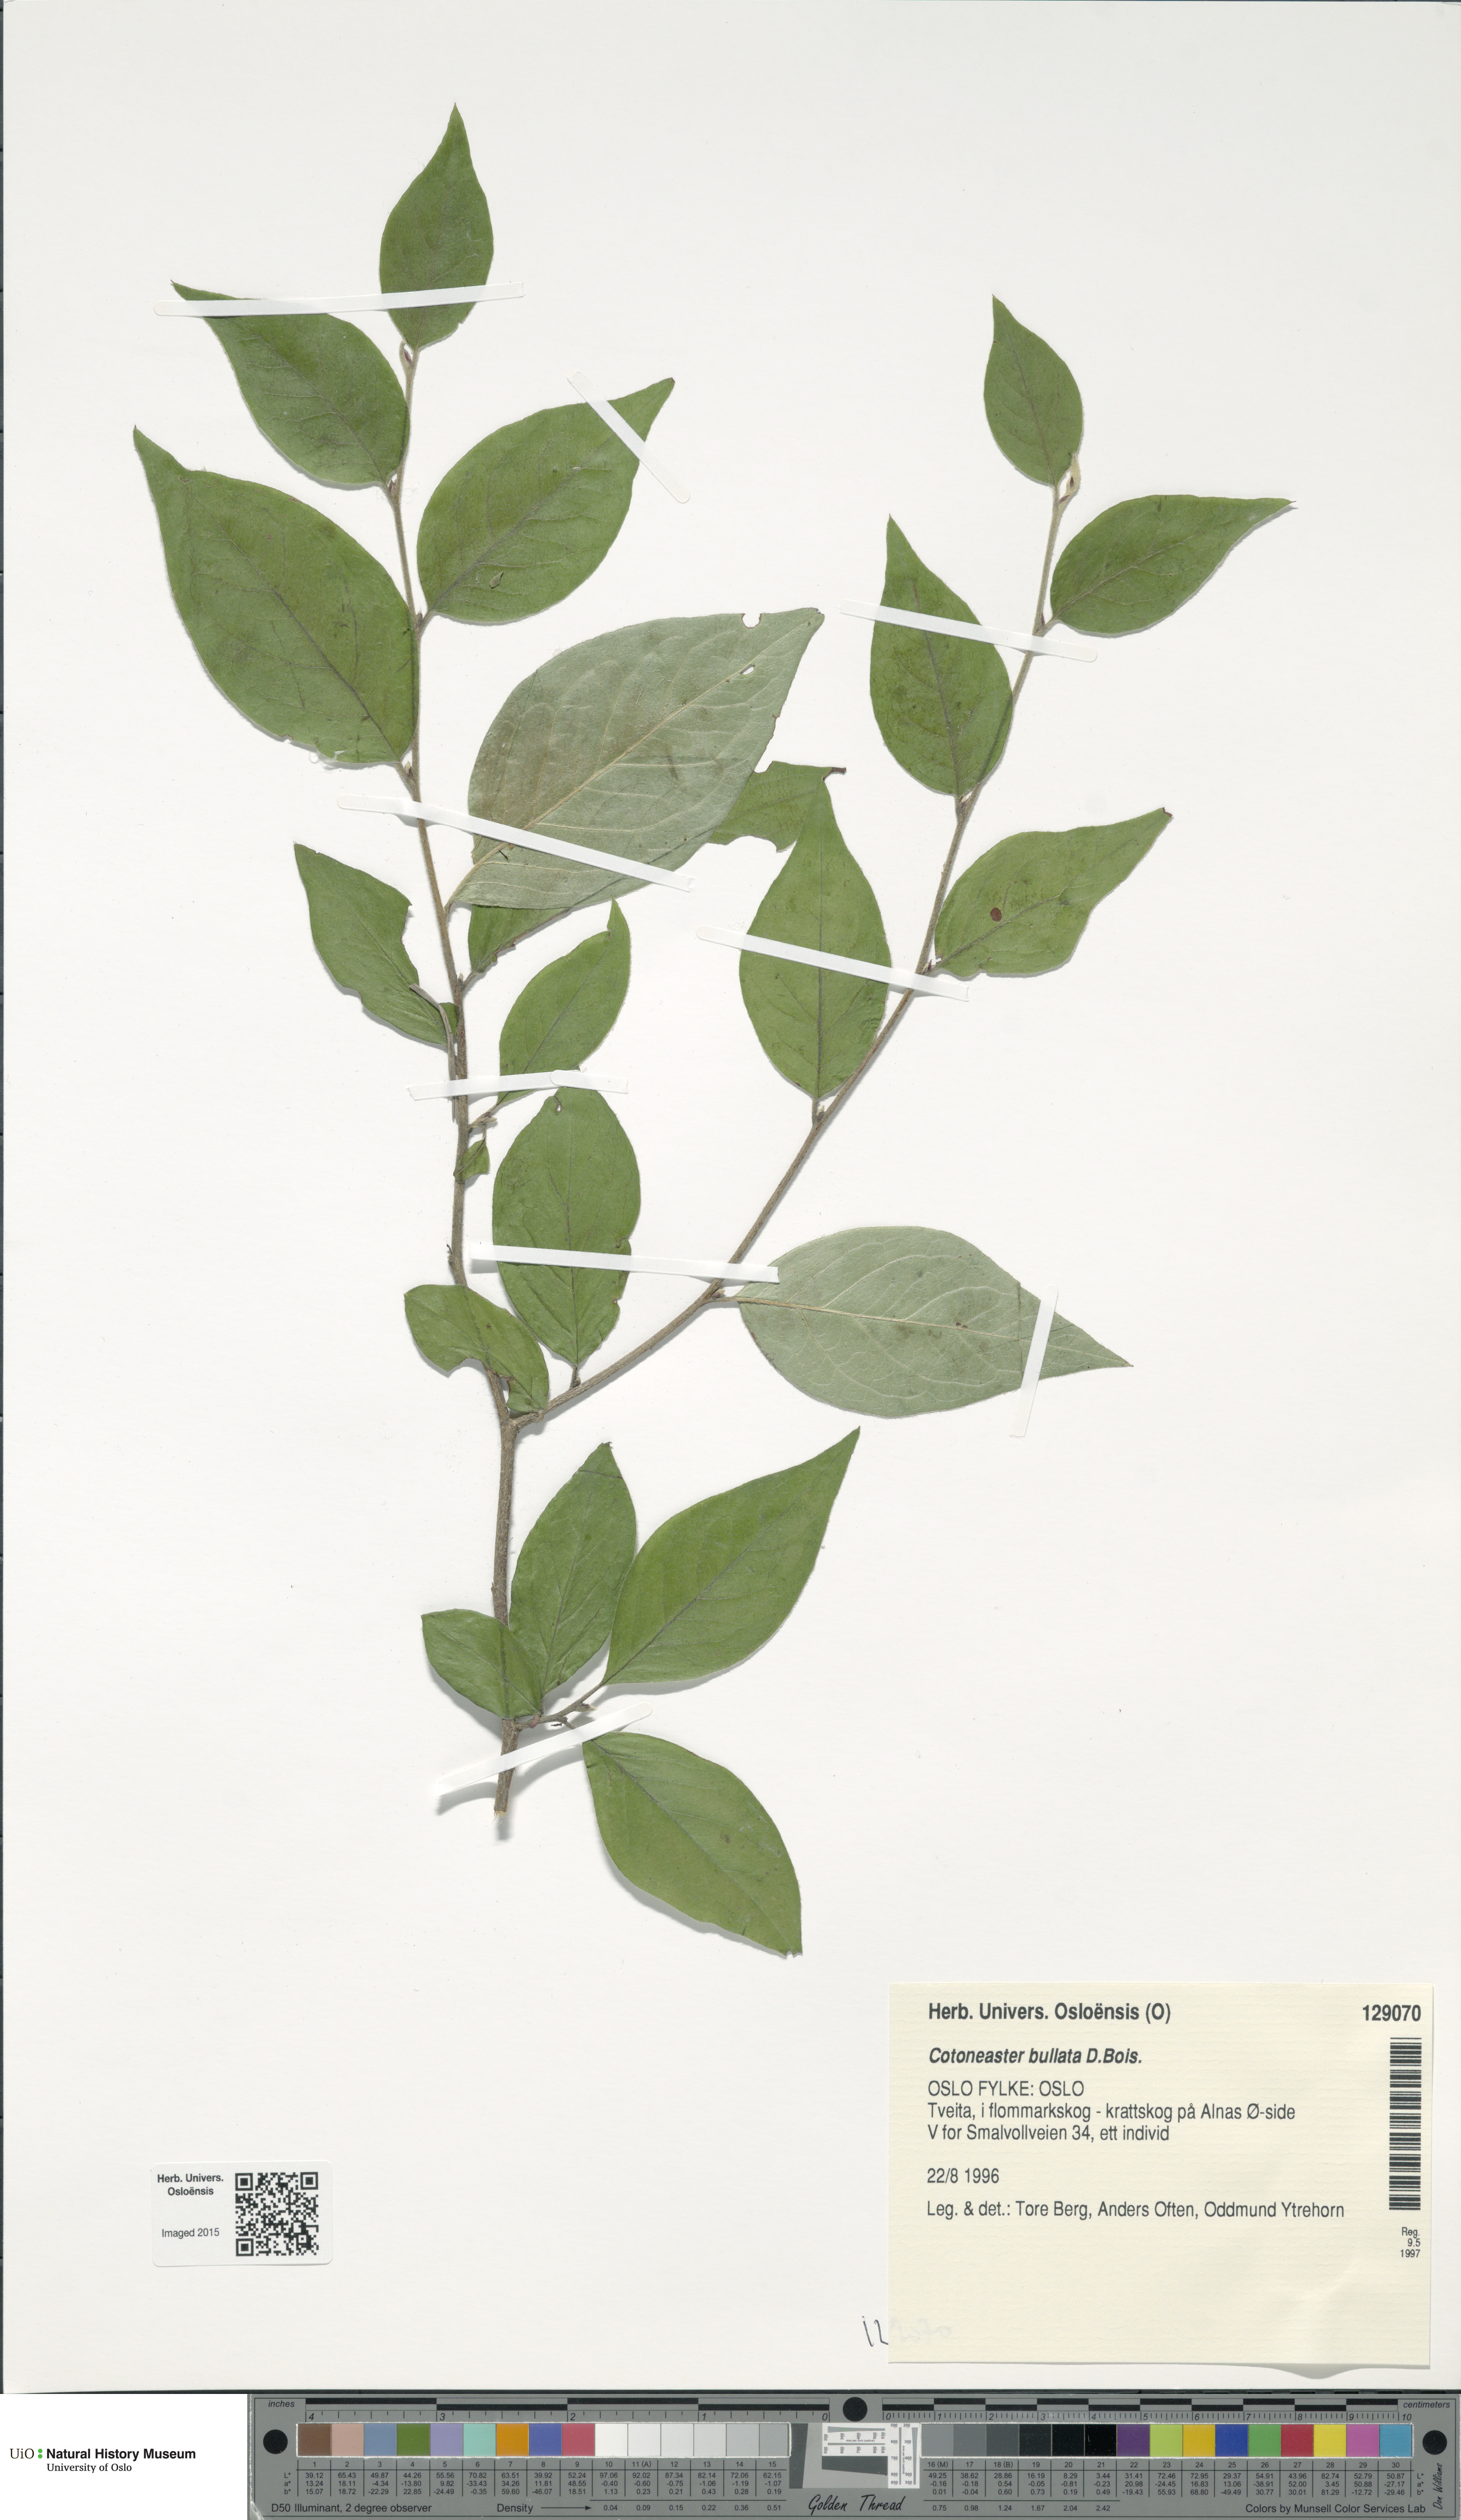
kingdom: Plantae
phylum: Tracheophyta
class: Magnoliopsida
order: Rosales
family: Rosaceae
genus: Cotoneaster
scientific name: Cotoneaster bullatus
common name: Hollyberry cotoneaster
